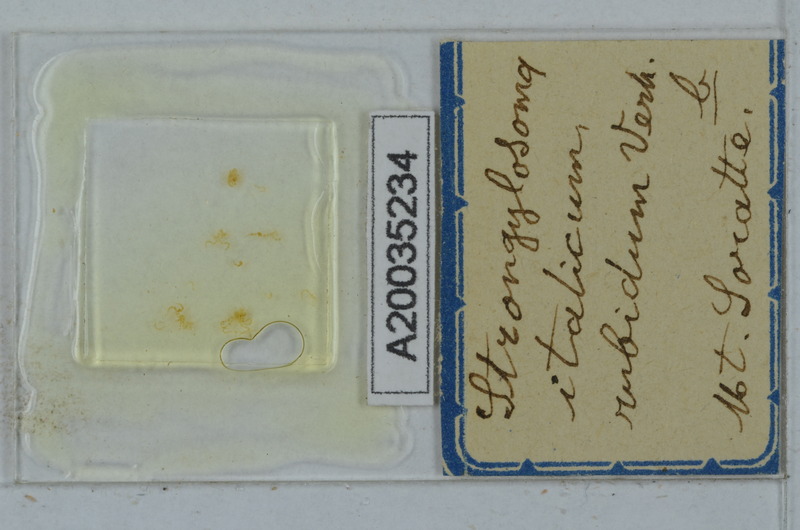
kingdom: Animalia
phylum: Arthropoda
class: Diplopoda
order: Polydesmida
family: Paradoxosomatidae
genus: Strongylosoma
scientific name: Strongylosoma italica
